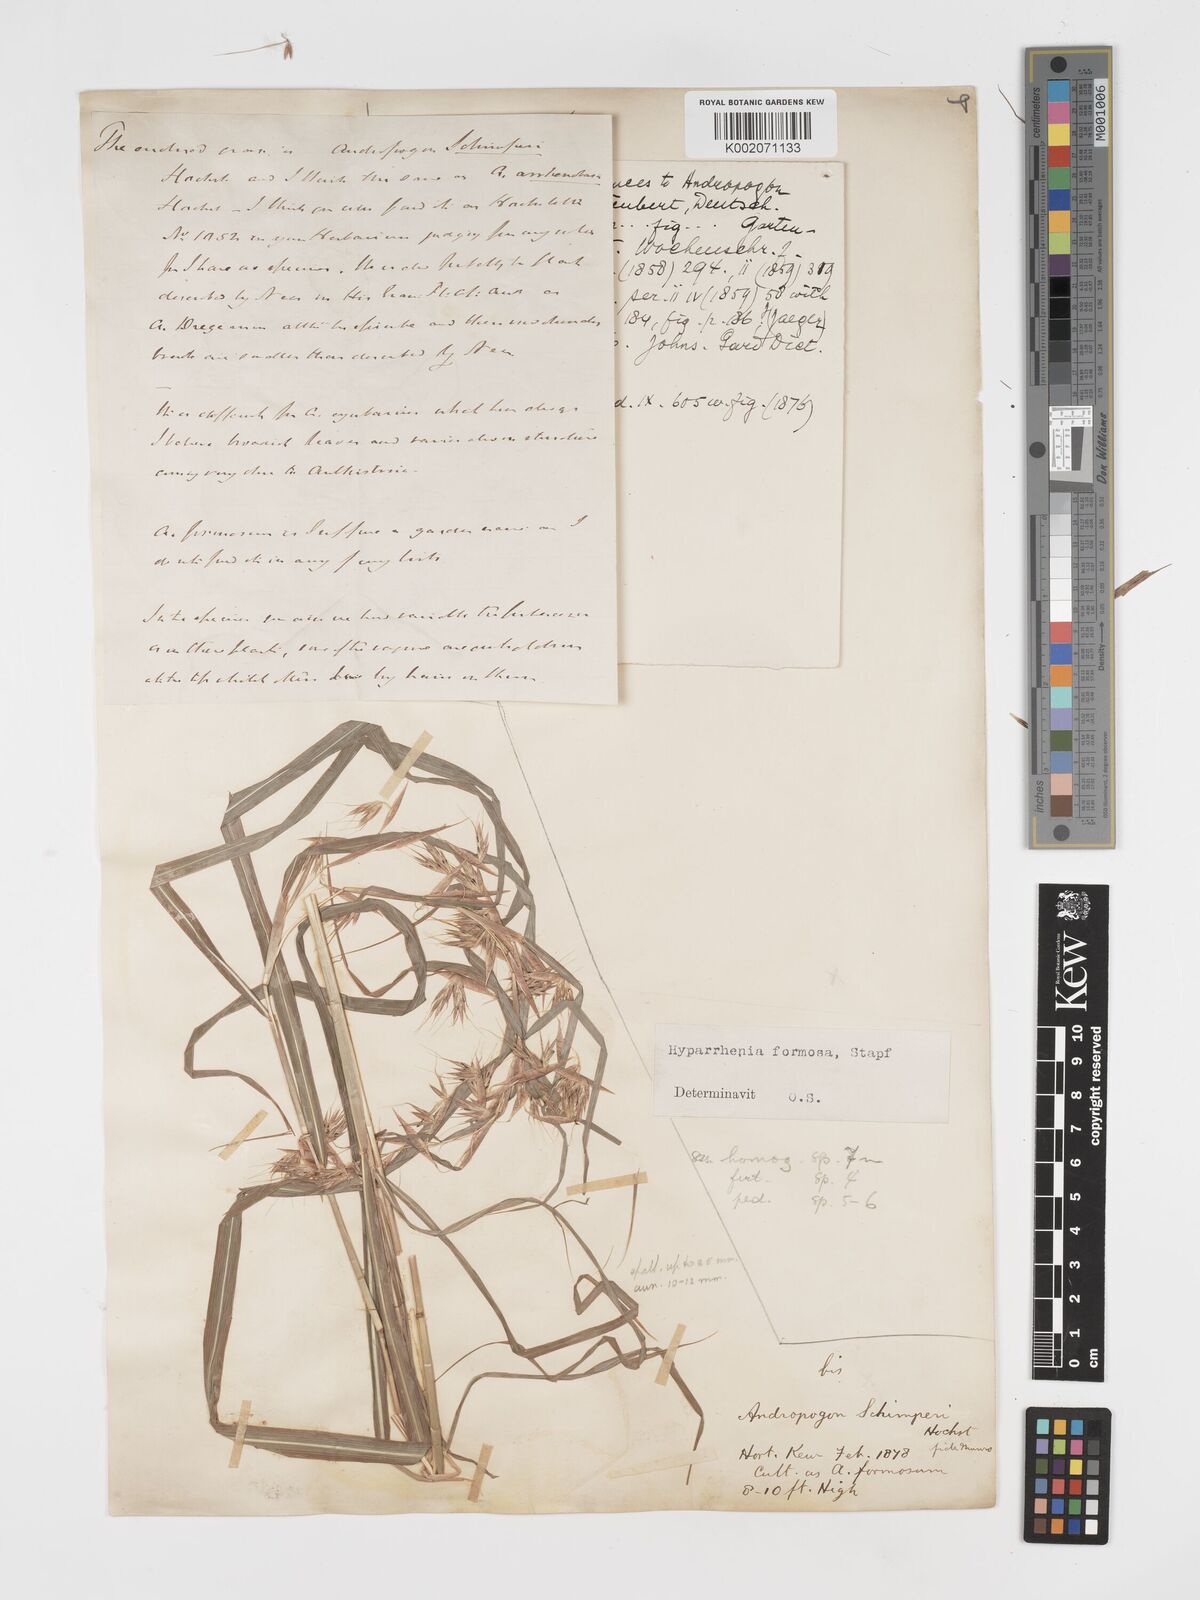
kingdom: Plantae
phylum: Tracheophyta
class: Liliopsida
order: Poales
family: Poaceae
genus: Hyparrhenia
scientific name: Hyparrhenia
